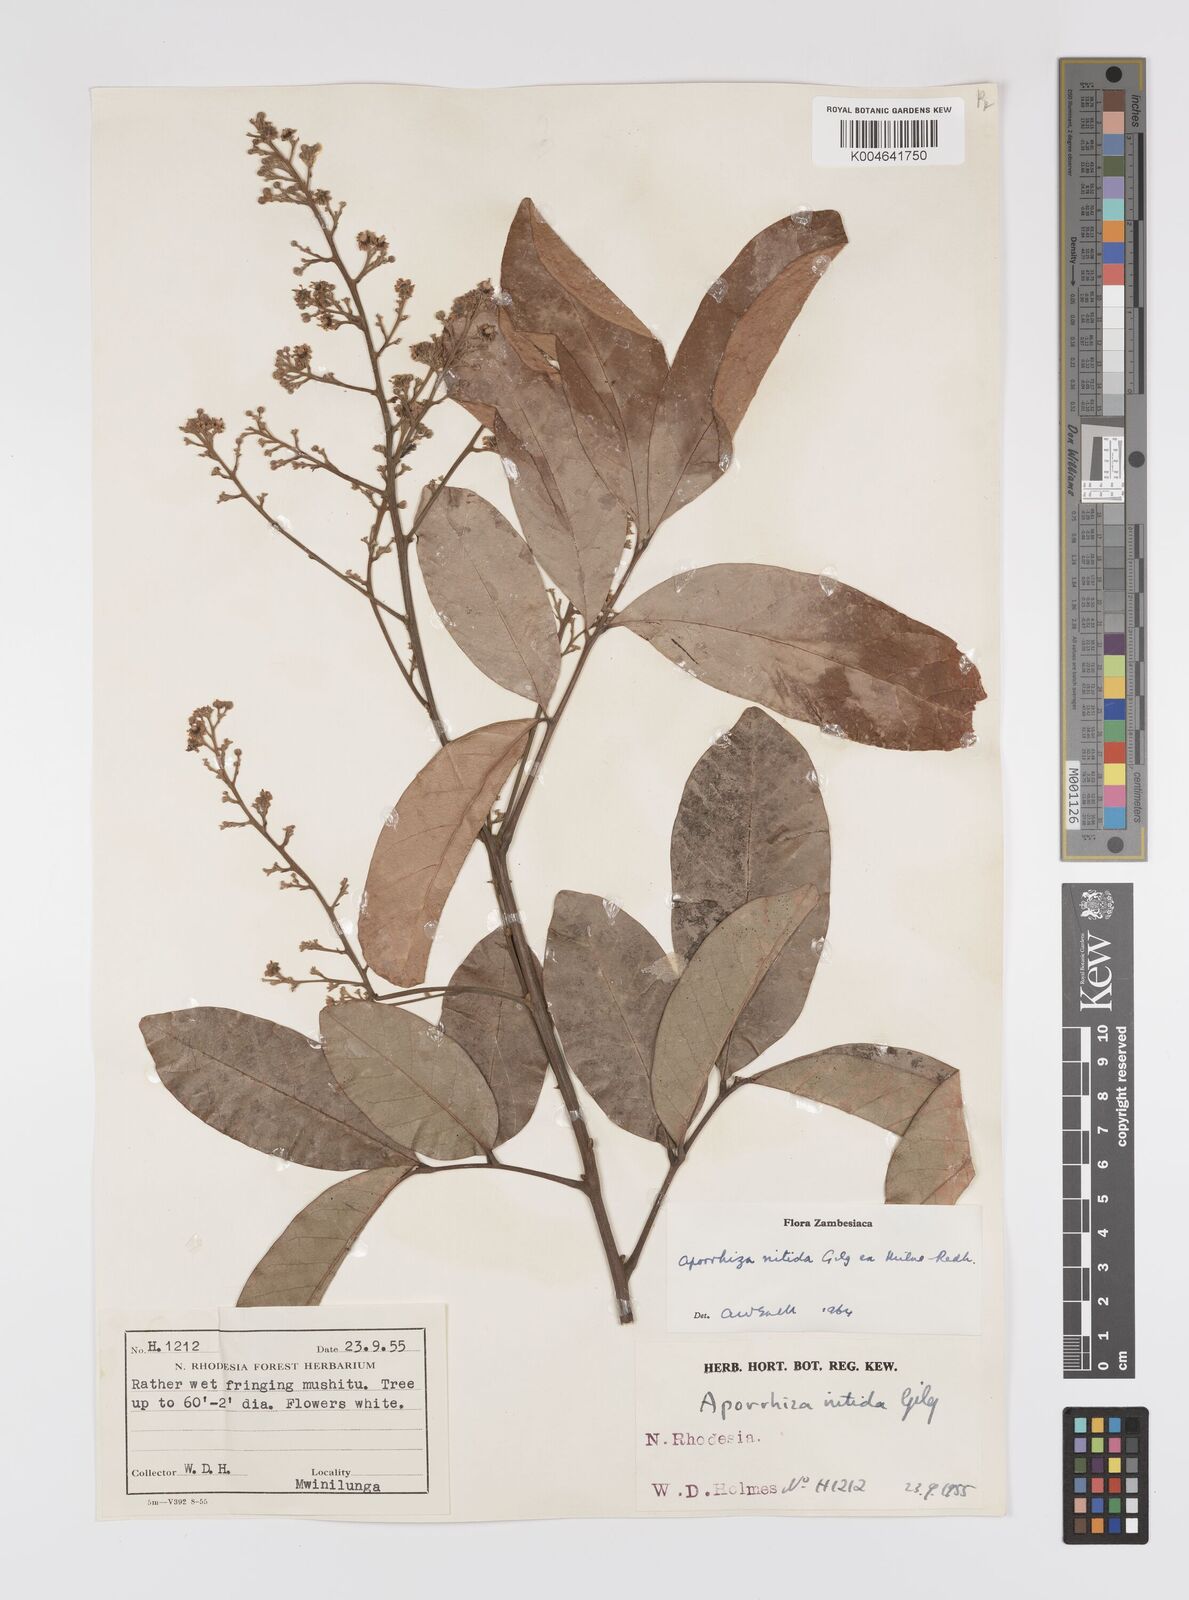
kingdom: Plantae
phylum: Tracheophyta
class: Magnoliopsida
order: Sapindales
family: Sapindaceae
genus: Aporrhiza
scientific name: Aporrhiza paniculata
